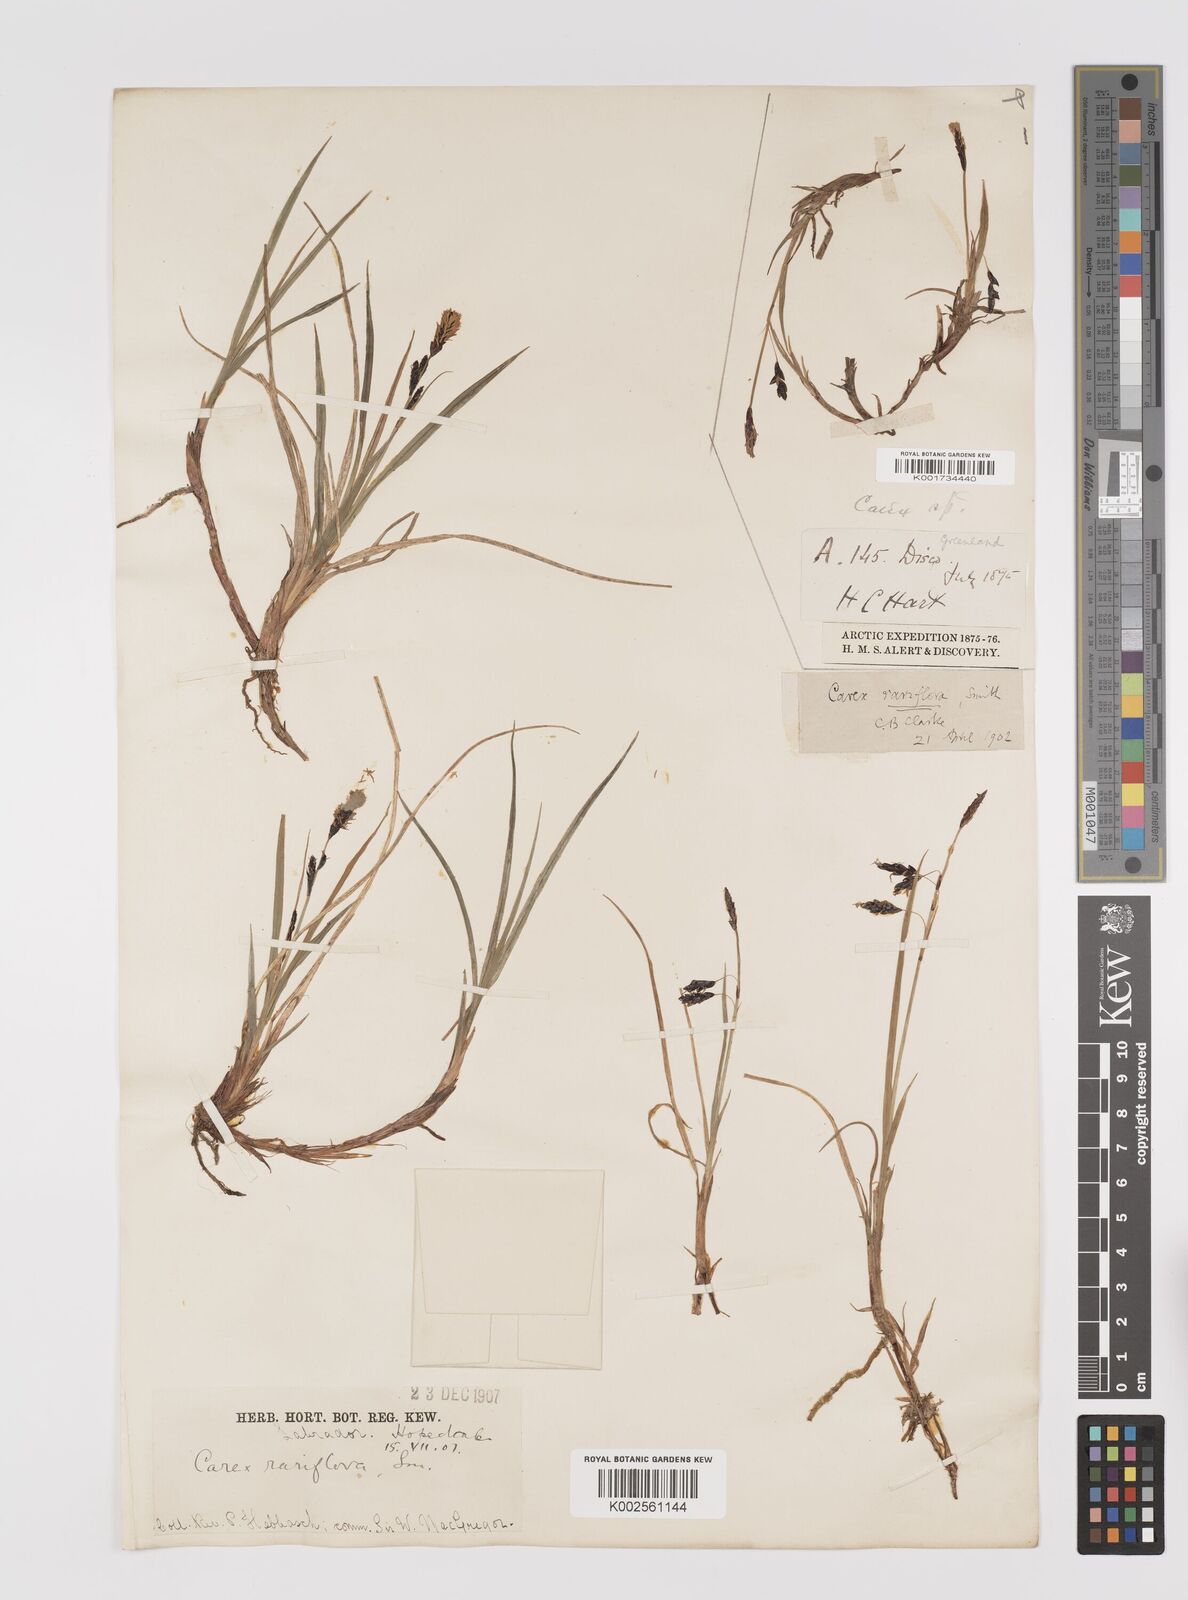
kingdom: Plantae
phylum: Tracheophyta
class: Liliopsida
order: Poales
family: Cyperaceae
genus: Carex
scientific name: Carex rariflora
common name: Loose-flowered alpine sedge
